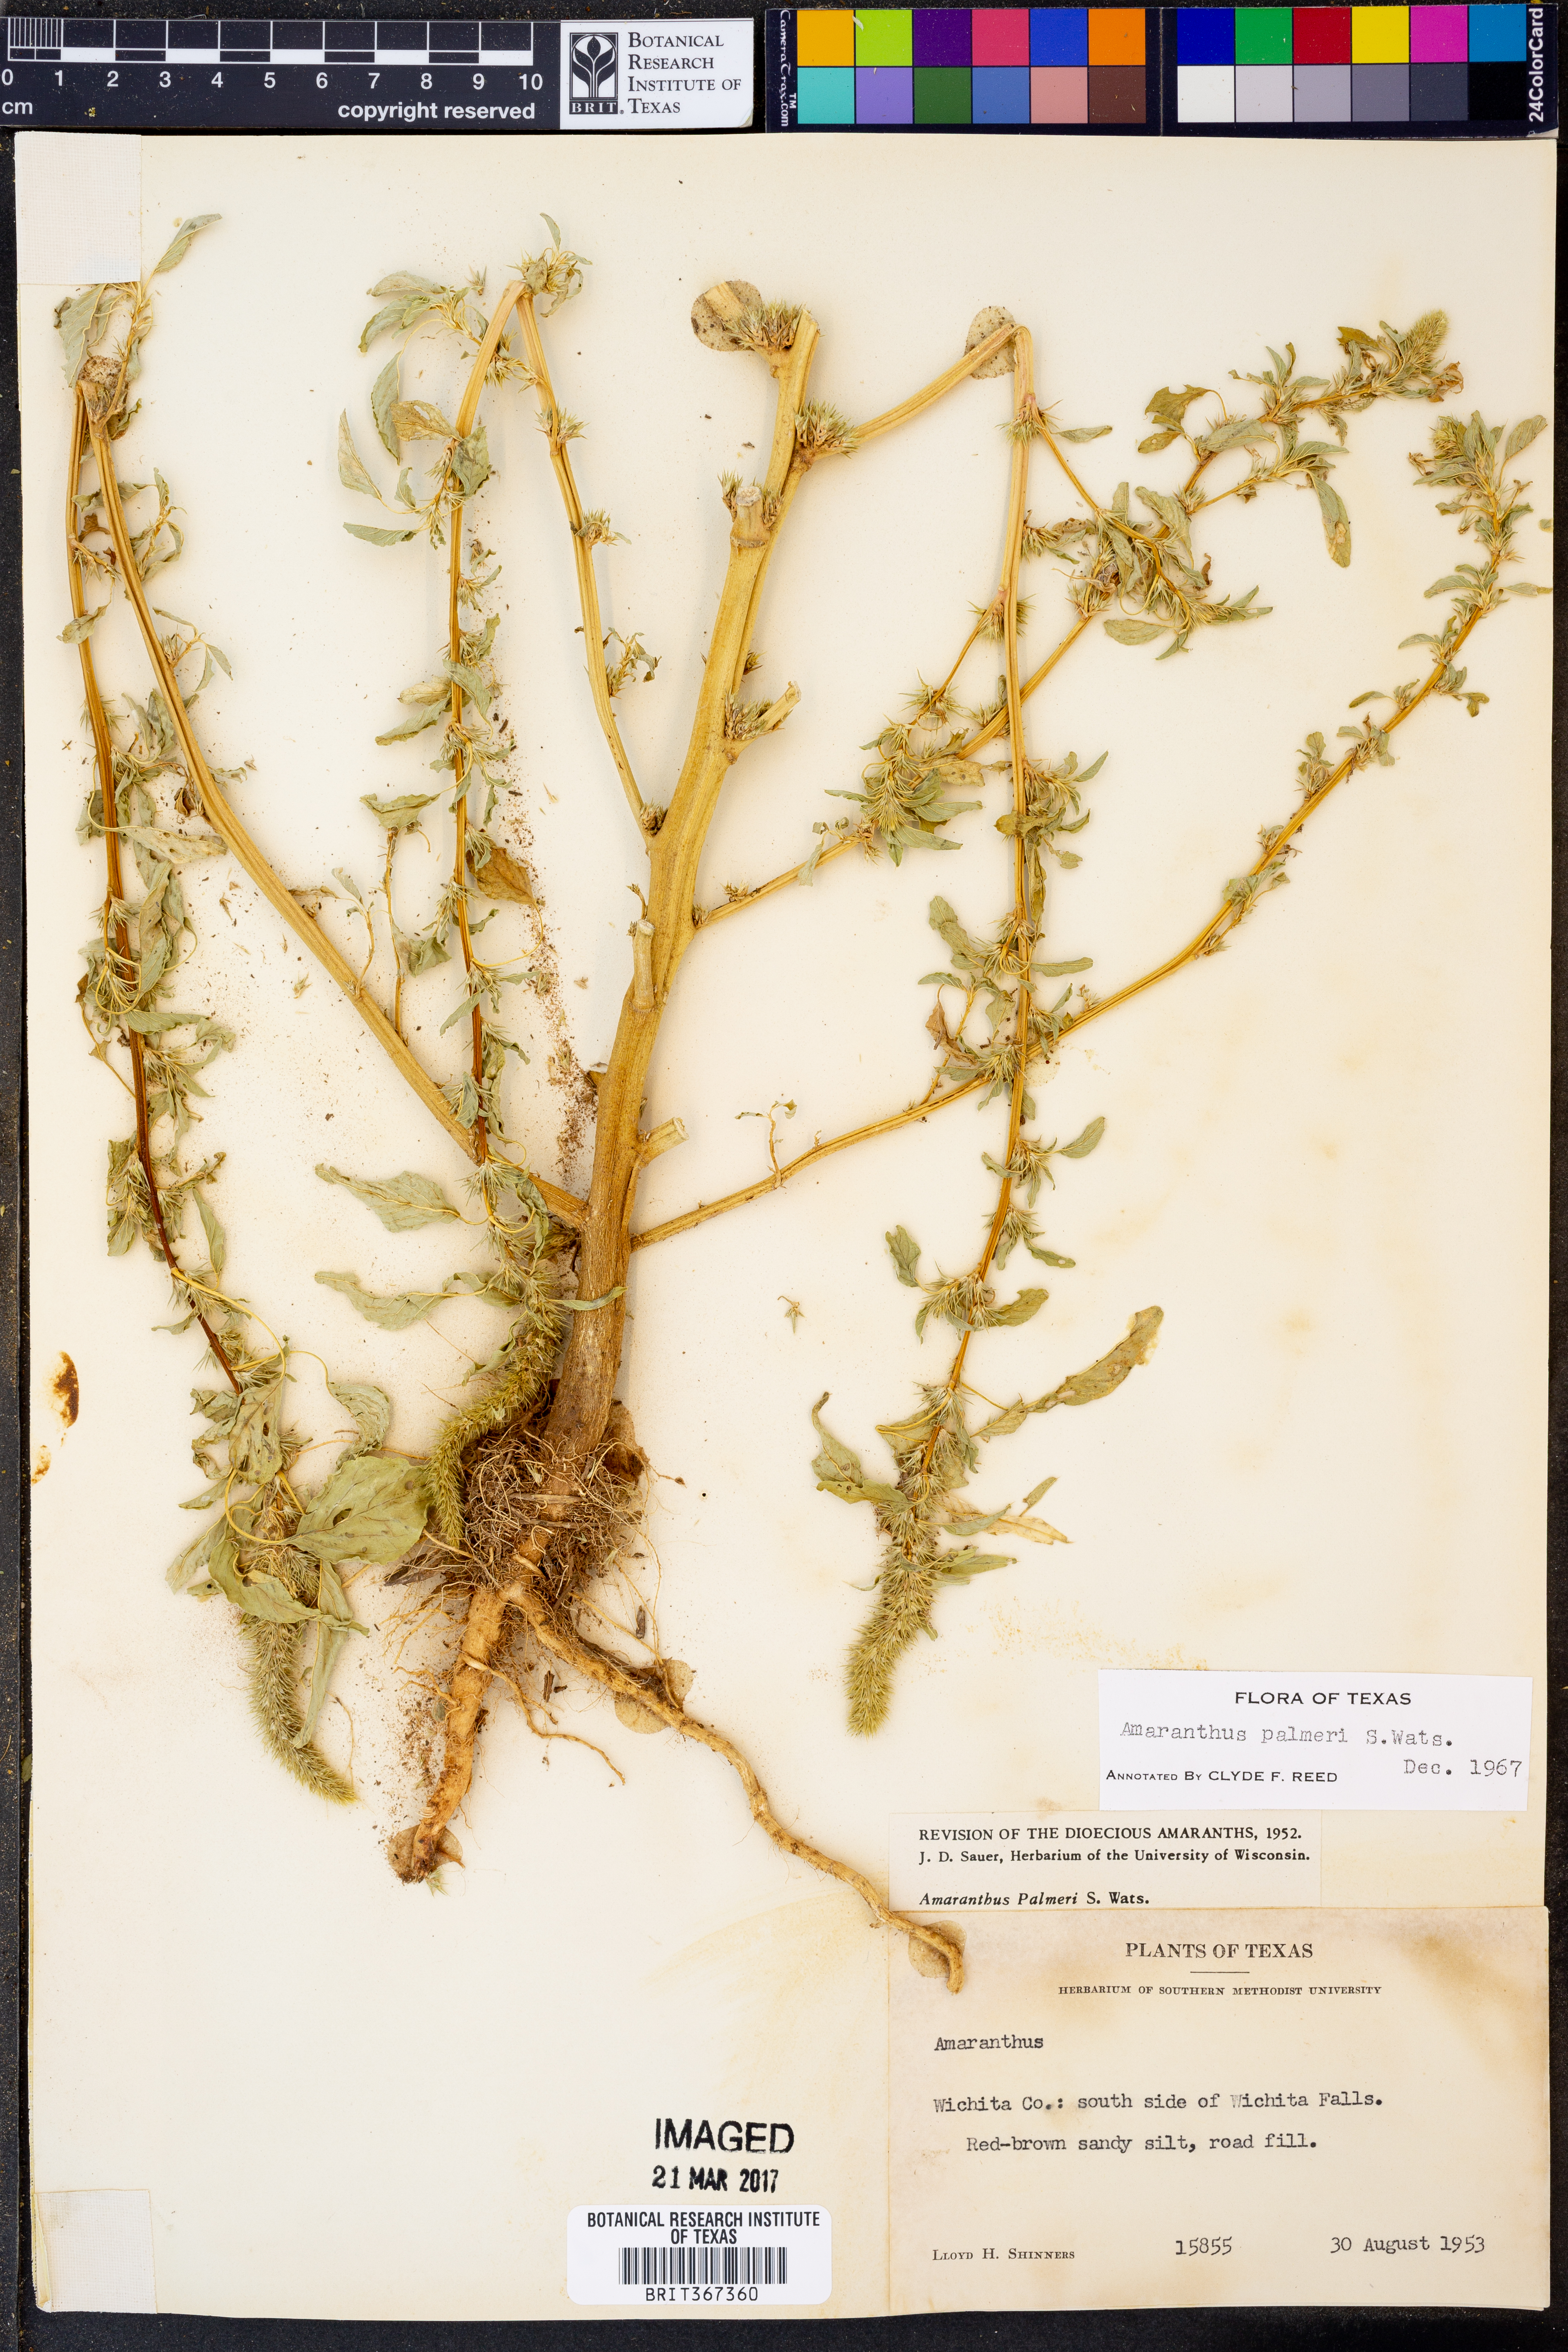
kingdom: Plantae
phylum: Tracheophyta
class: Magnoliopsida
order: Caryophyllales
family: Amaranthaceae
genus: Amaranthus
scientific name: Amaranthus palmeri
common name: Dioecious amaranth
